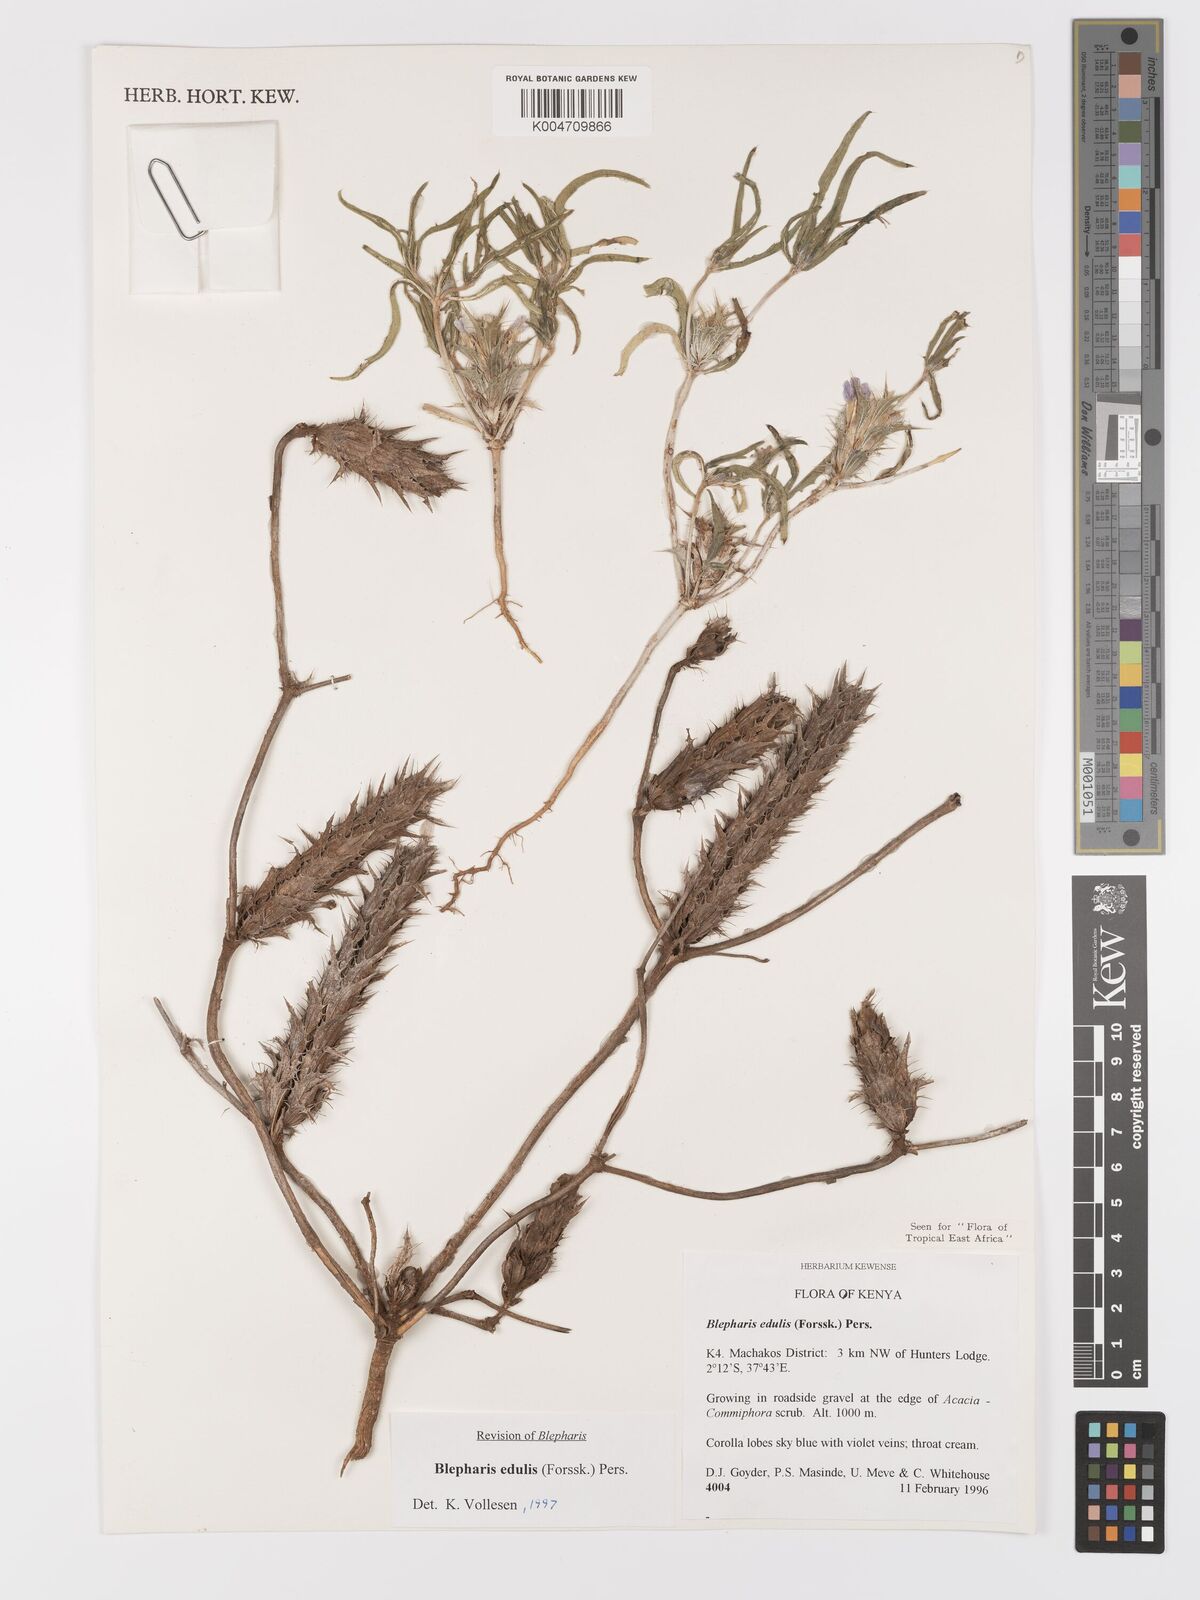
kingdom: Plantae
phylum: Tracheophyta
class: Magnoliopsida
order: Lamiales
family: Acanthaceae
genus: Blepharis
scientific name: Blepharis edulis
